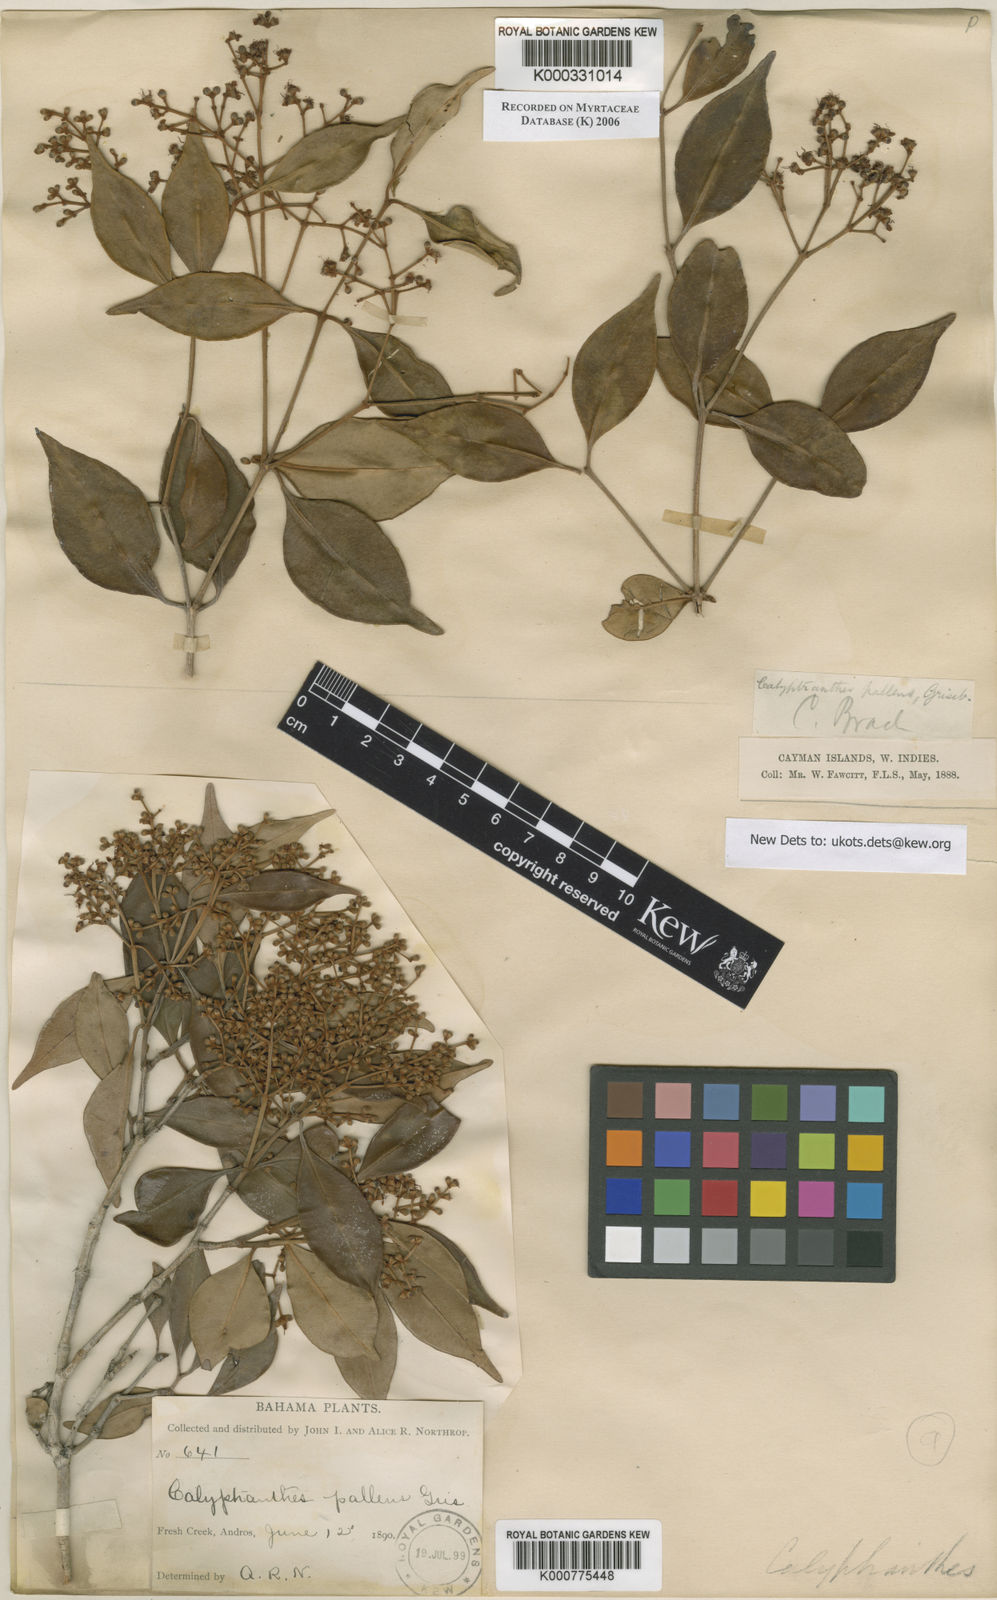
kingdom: Plantae
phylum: Tracheophyta
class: Magnoliopsida
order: Myrtales
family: Myrtaceae
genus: Myrcia
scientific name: Myrcia neopallens
